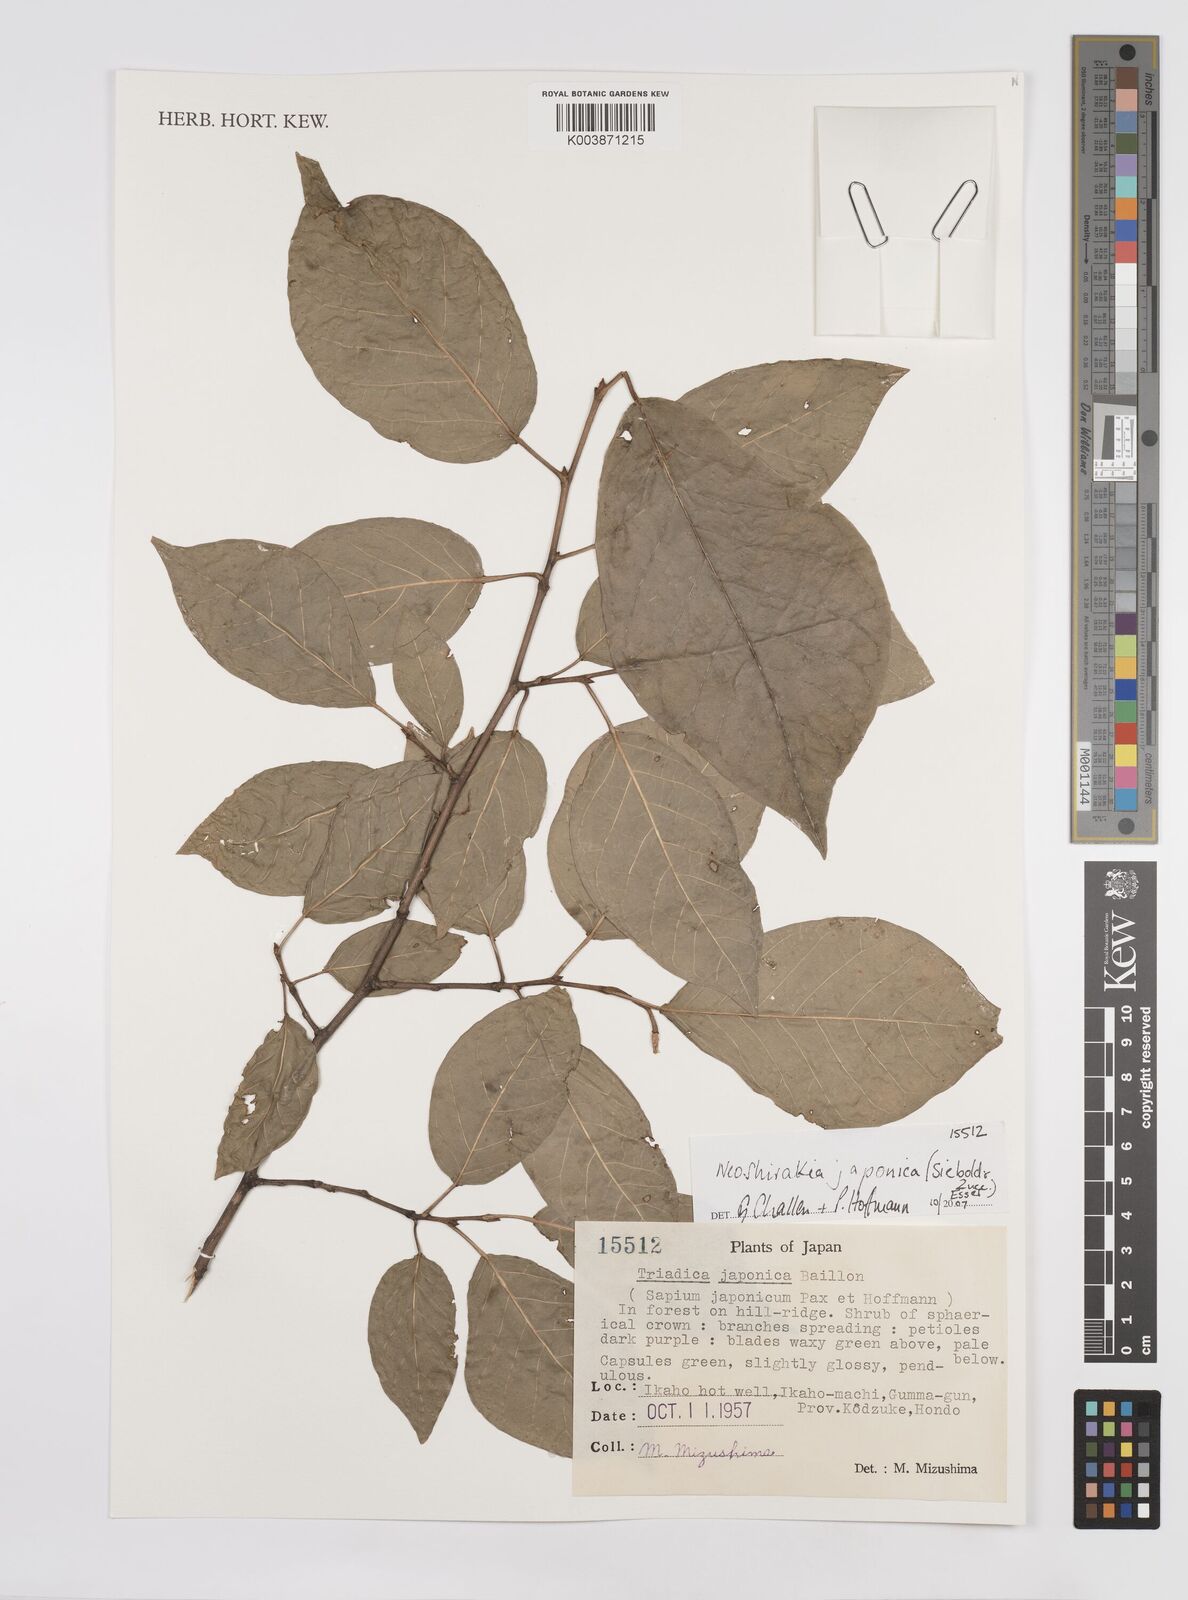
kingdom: Plantae
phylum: Tracheophyta
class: Magnoliopsida
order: Malpighiales
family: Euphorbiaceae
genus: Neoshirakia
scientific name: Neoshirakia japonica
